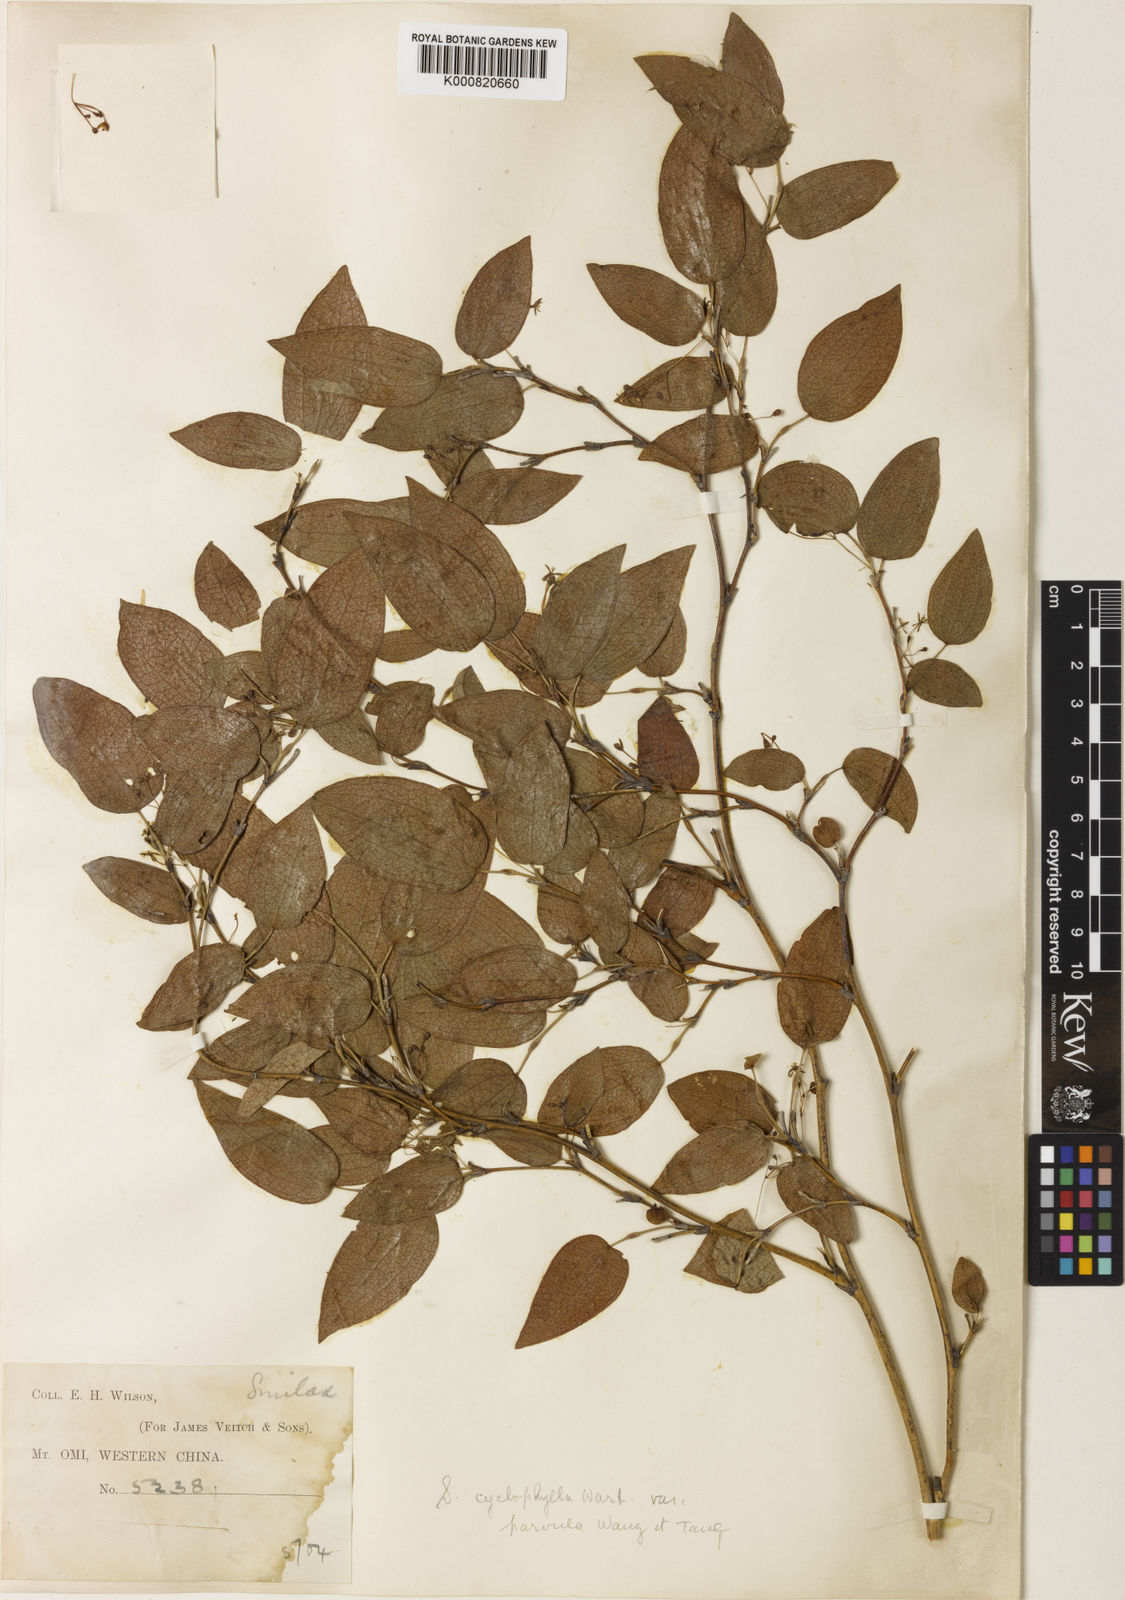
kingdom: Plantae
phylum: Tracheophyta
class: Liliopsida
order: Liliales
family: Smilacaceae
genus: Smilax
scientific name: Smilax neocyclophylla
